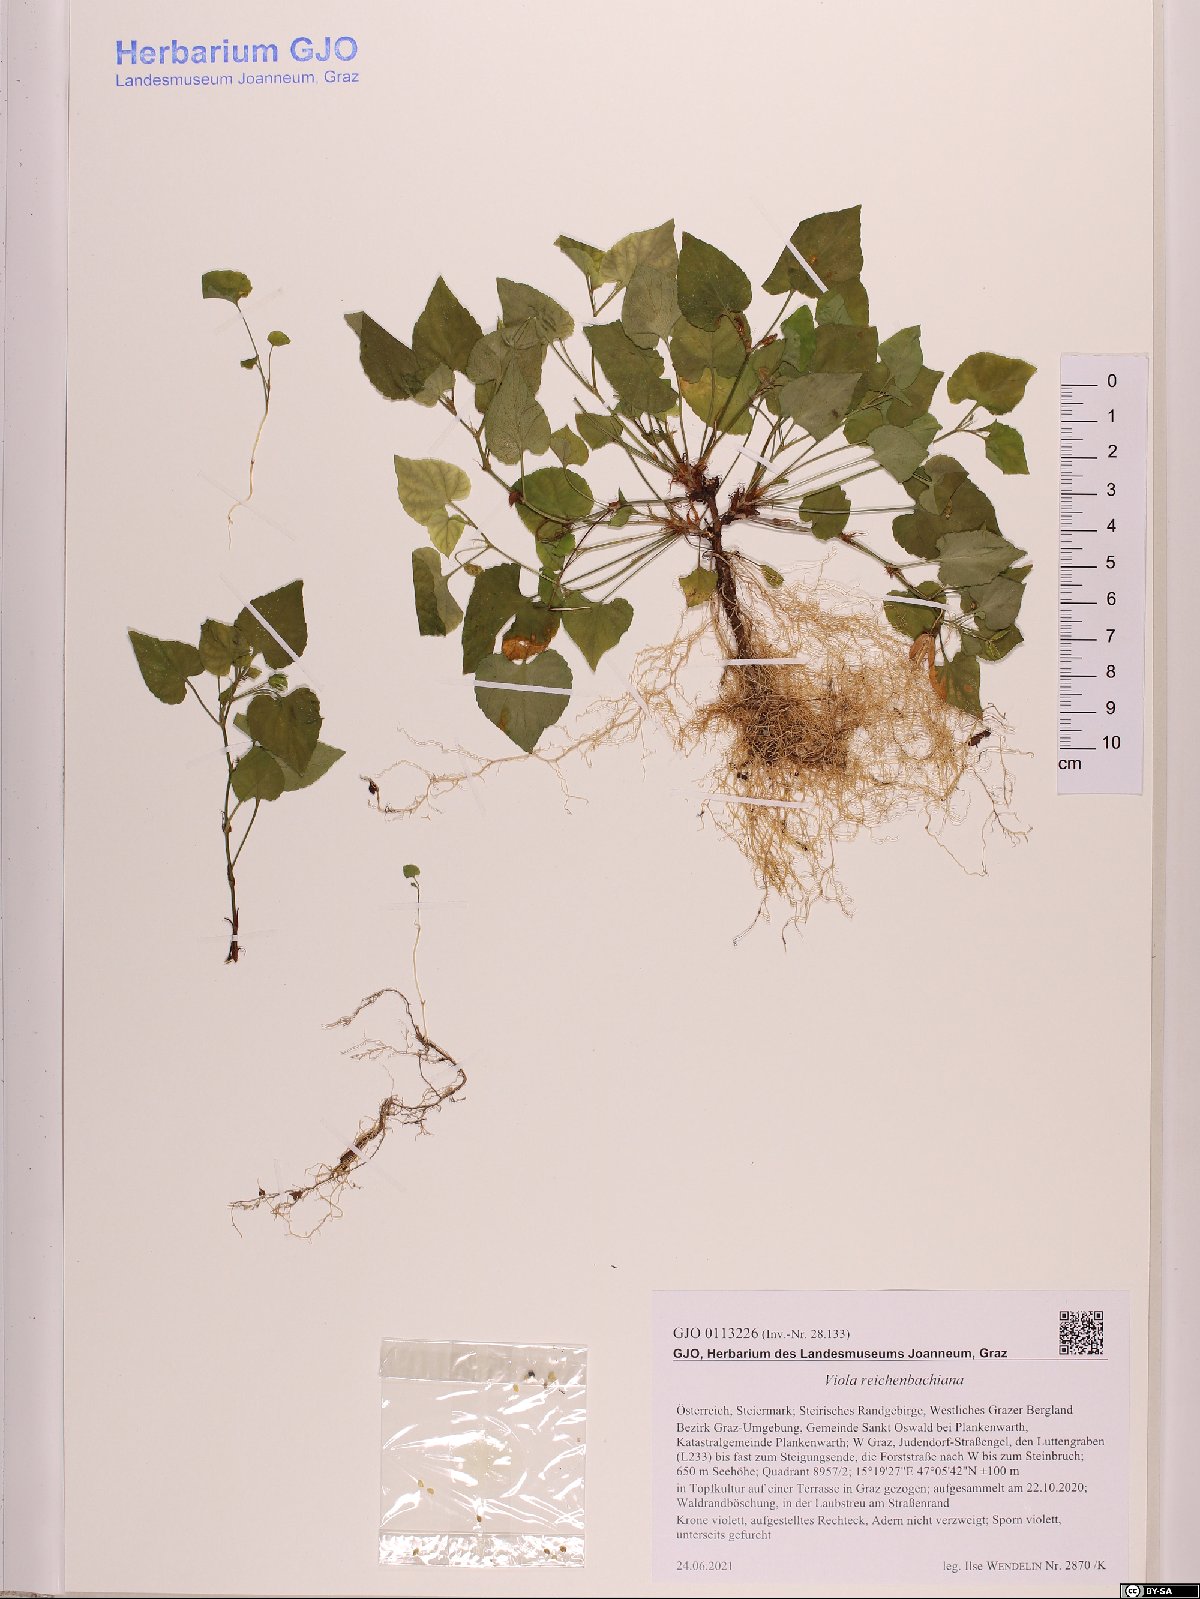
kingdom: Plantae
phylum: Tracheophyta
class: Magnoliopsida
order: Malpighiales
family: Violaceae
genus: Viola
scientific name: Viola reichenbachiana
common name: Early dog-violet
